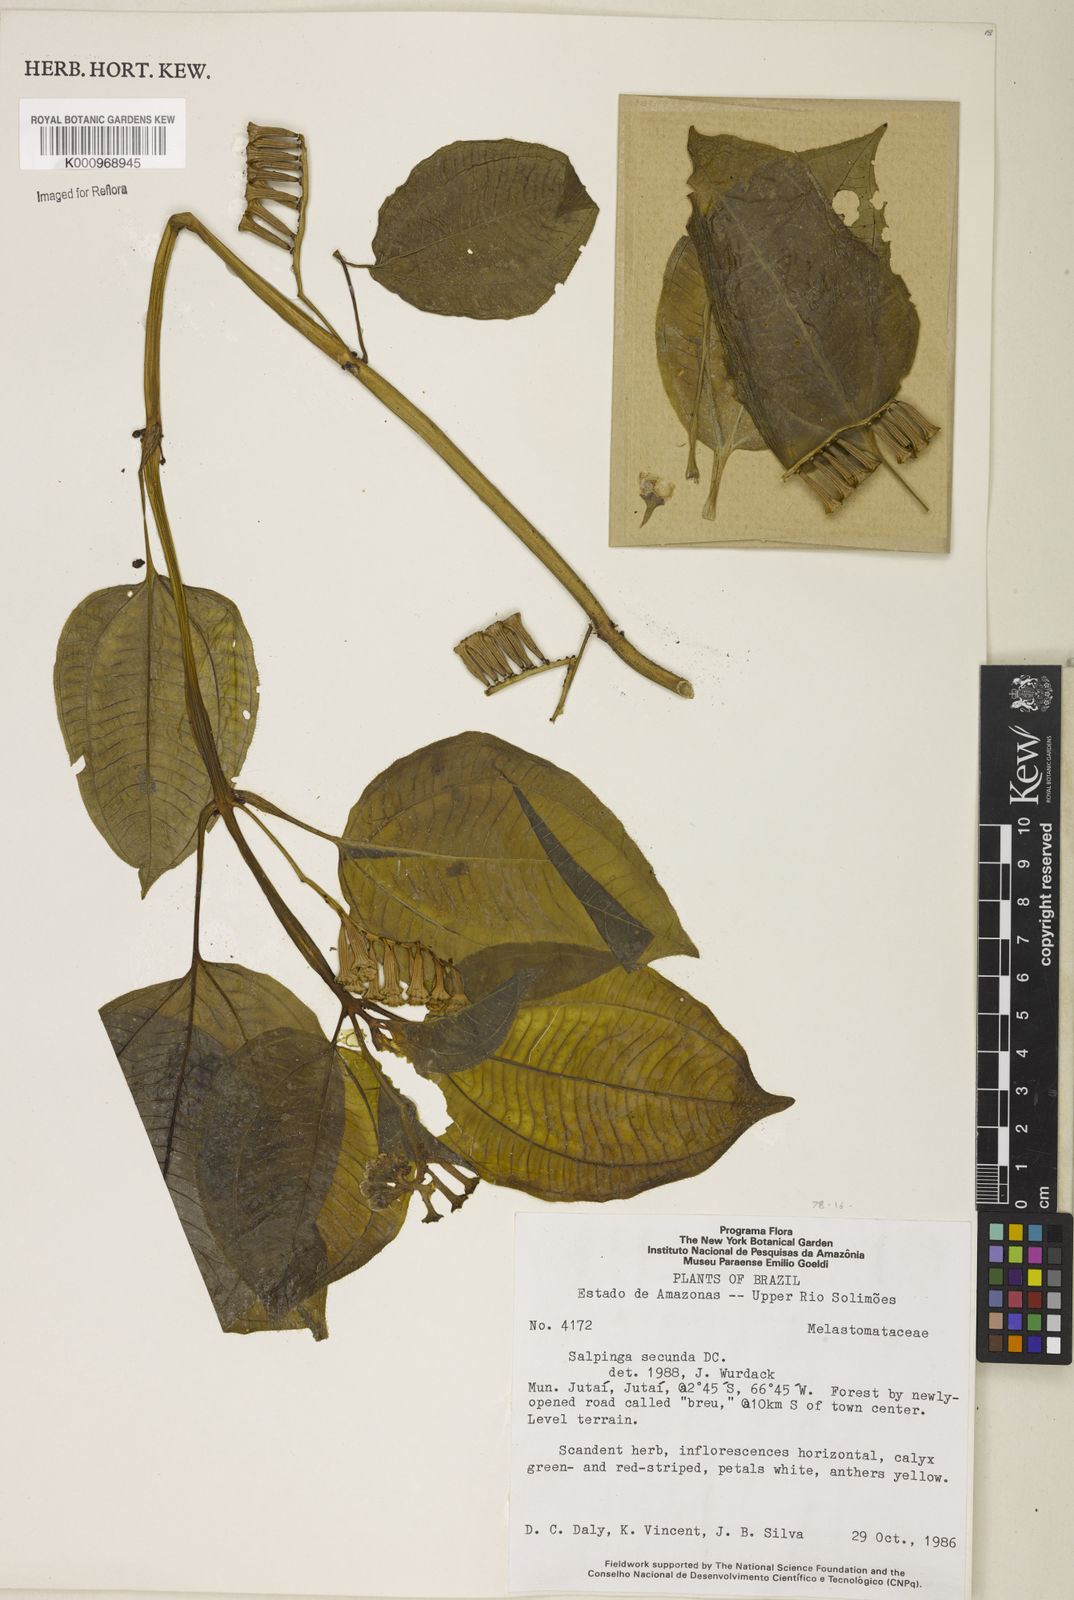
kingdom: Plantae
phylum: Tracheophyta
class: Magnoliopsida
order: Myrtales
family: Melastomataceae
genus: Salpinga
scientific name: Salpinga secunda
